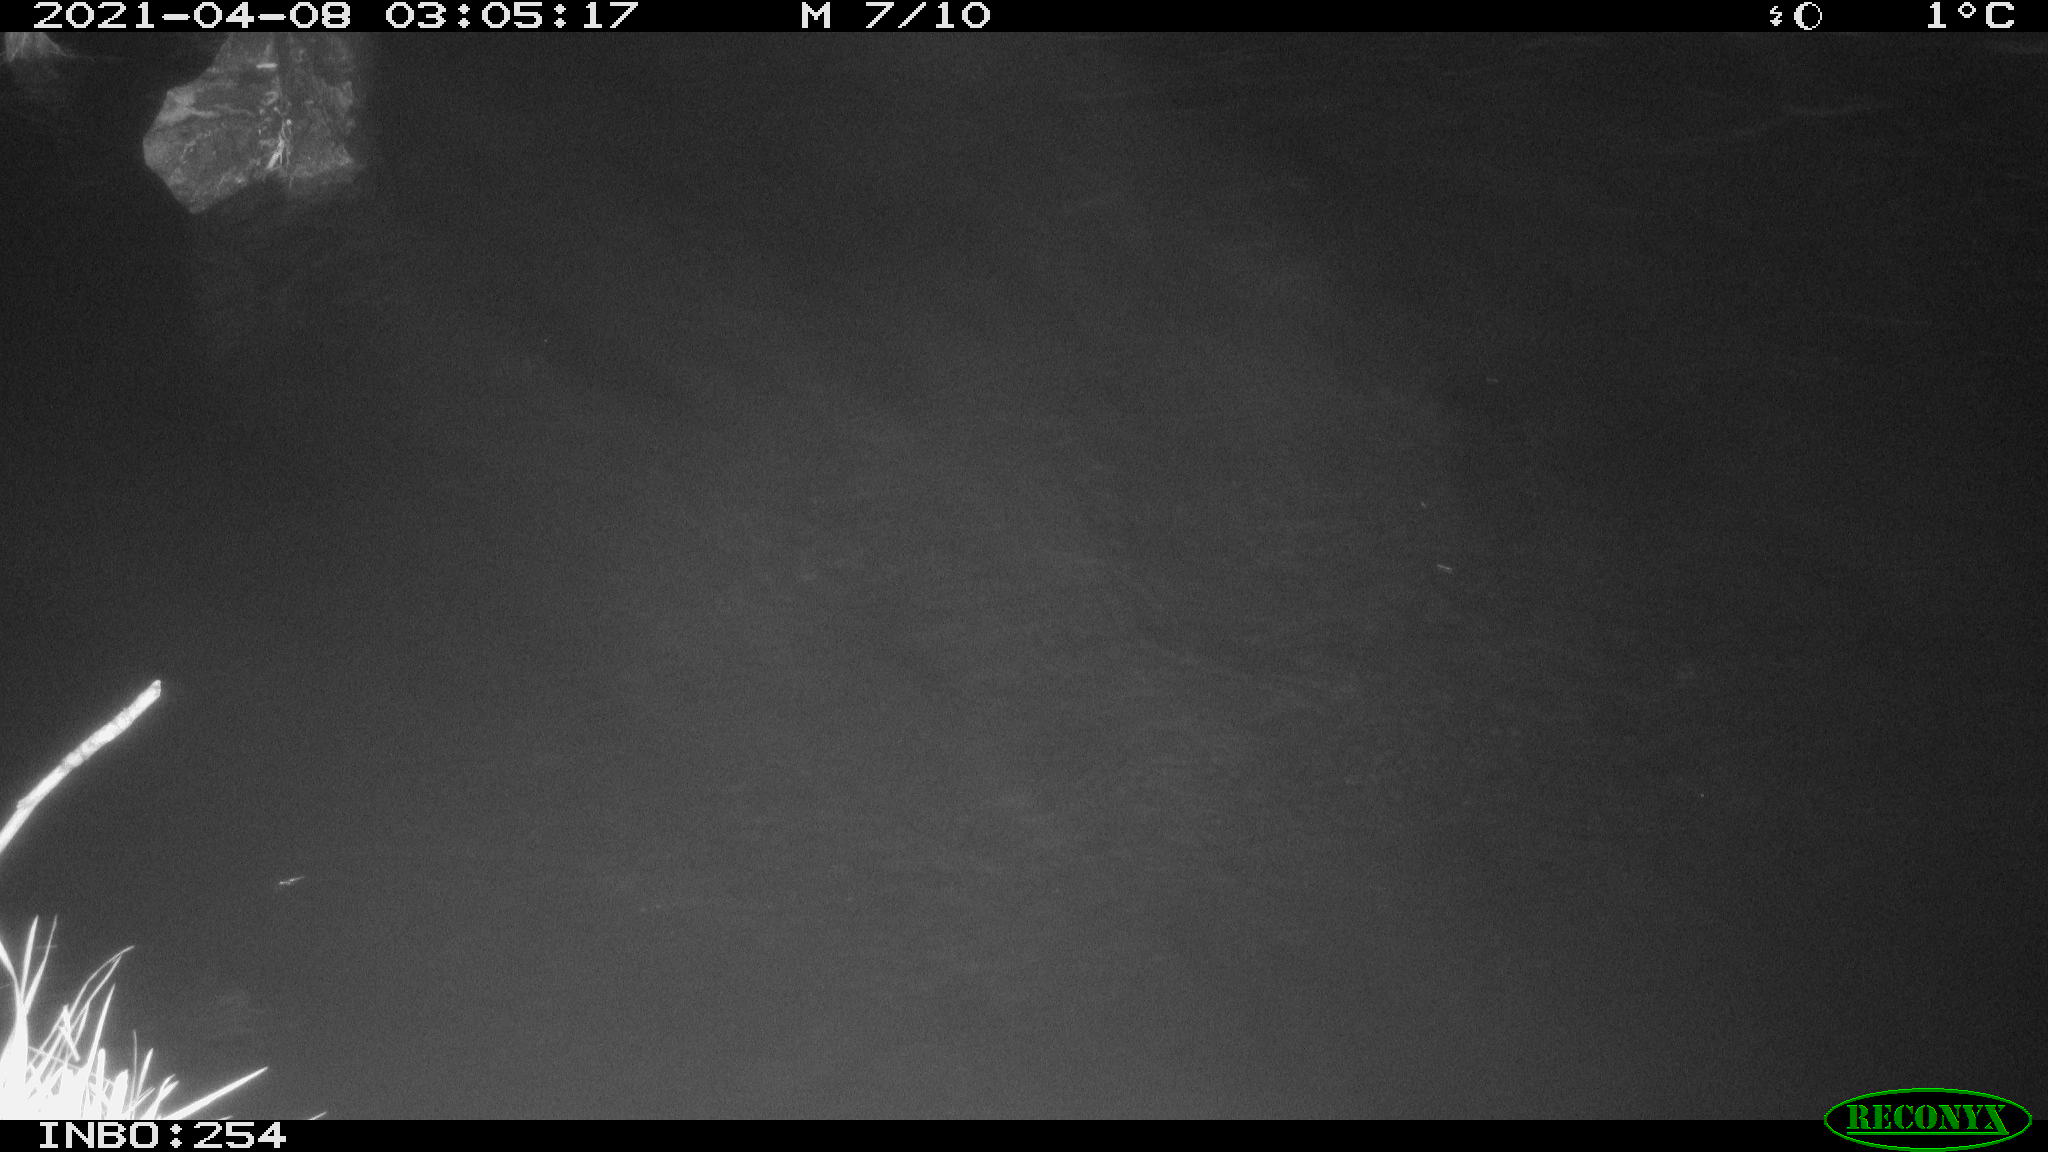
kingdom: Animalia
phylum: Chordata
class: Aves
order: Anseriformes
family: Anatidae
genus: Anas
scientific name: Anas
